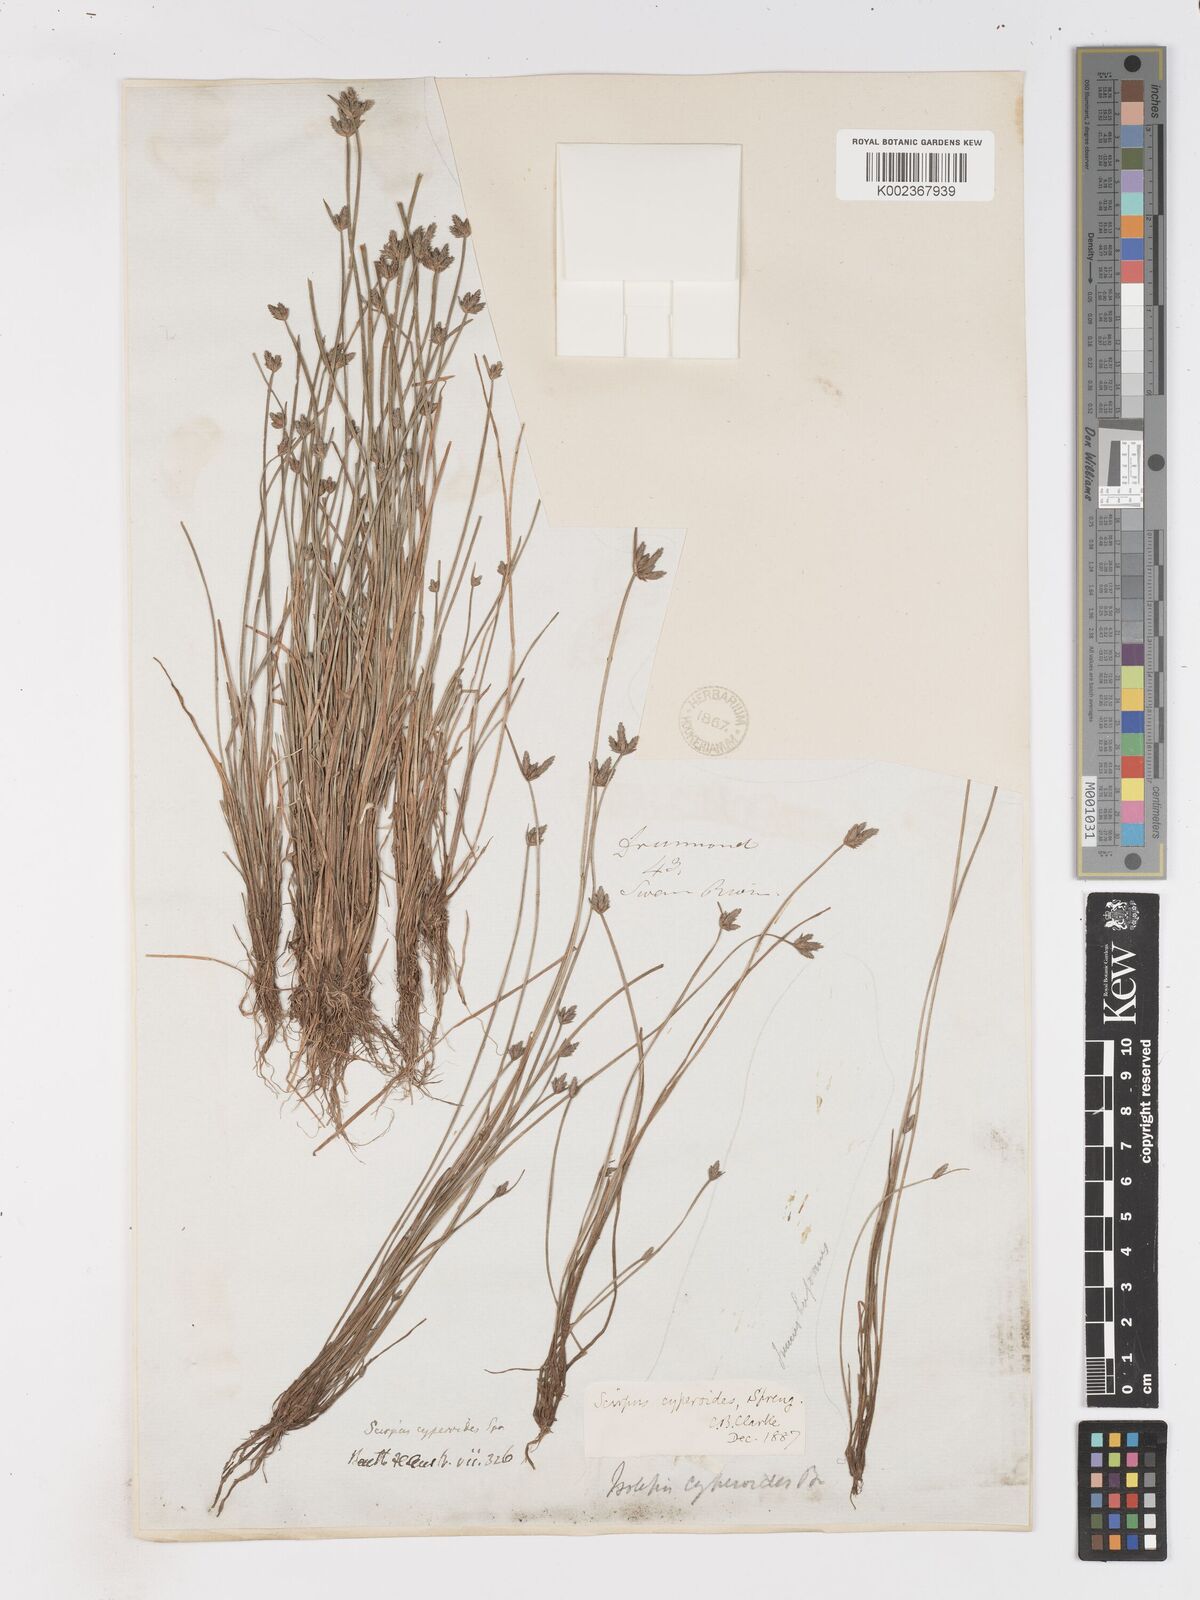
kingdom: Plantae
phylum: Tracheophyta
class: Liliopsida
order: Poales
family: Cyperaceae
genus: Isolepis
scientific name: Isolepis cyperoides
